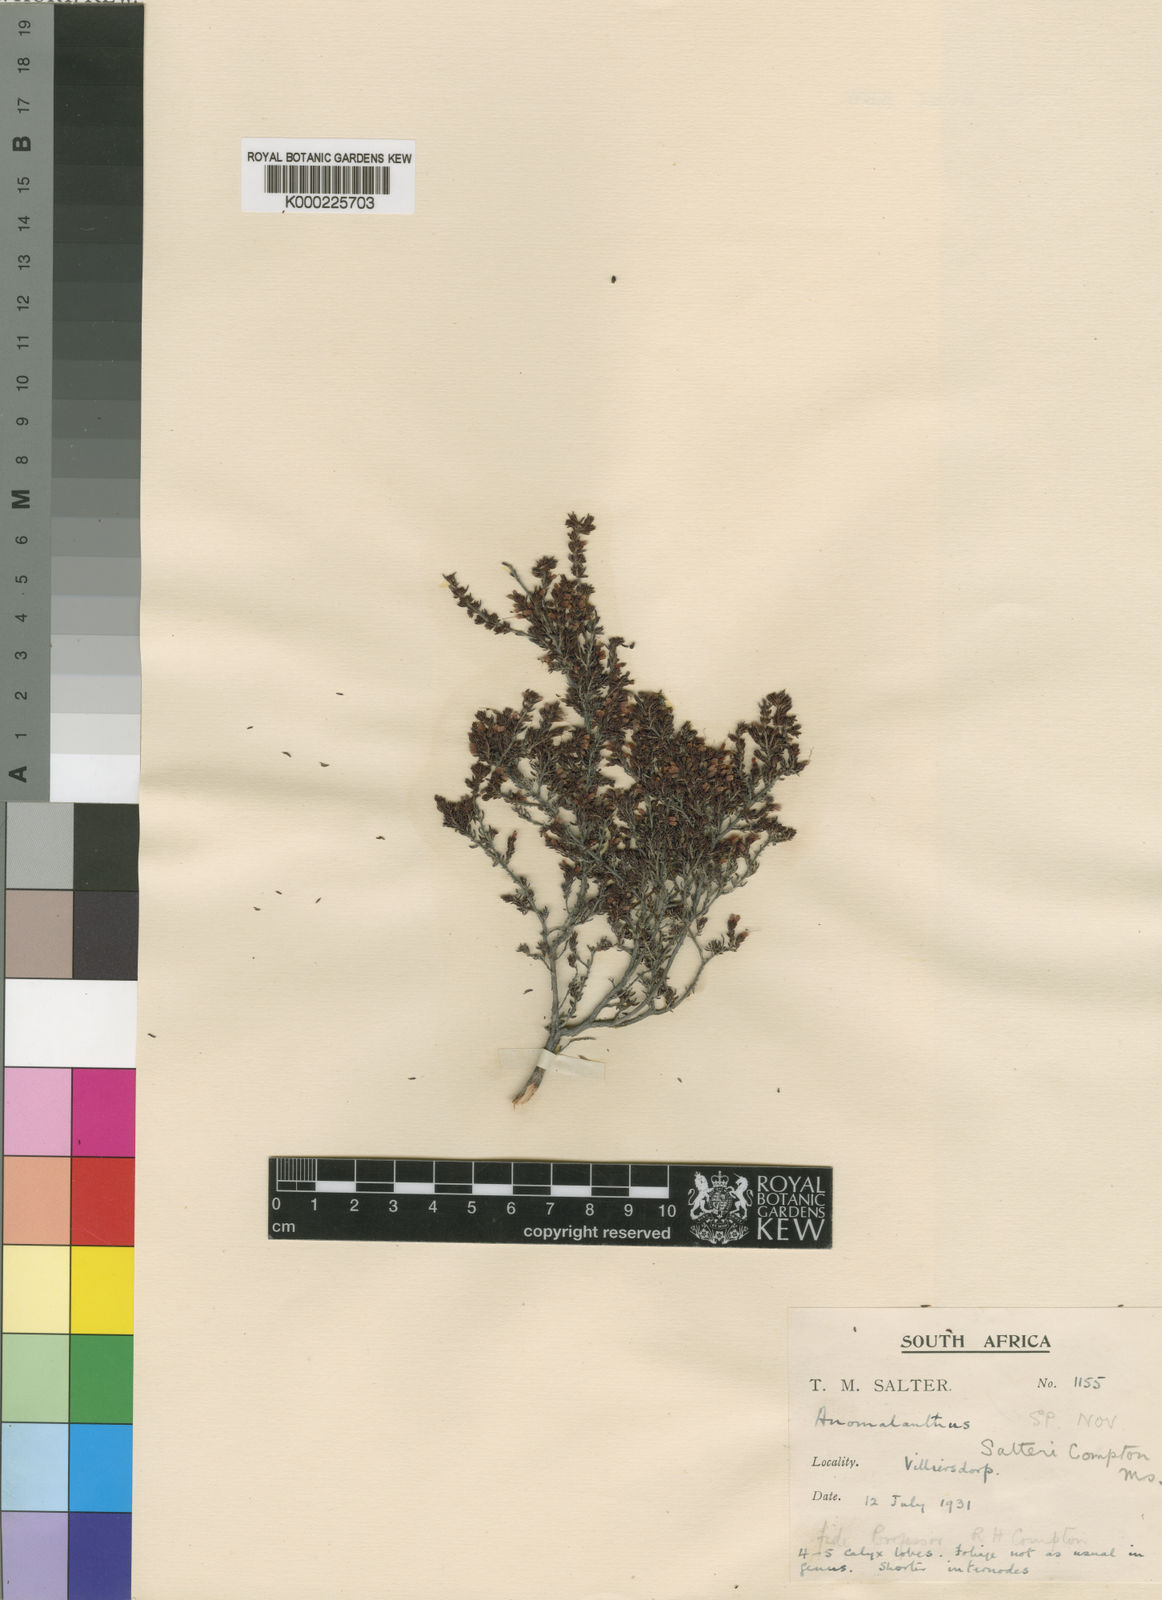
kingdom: Plantae
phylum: Tracheophyta
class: Magnoliopsida
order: Ericales
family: Ericaceae
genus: Erica
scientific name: Erica anguliger
